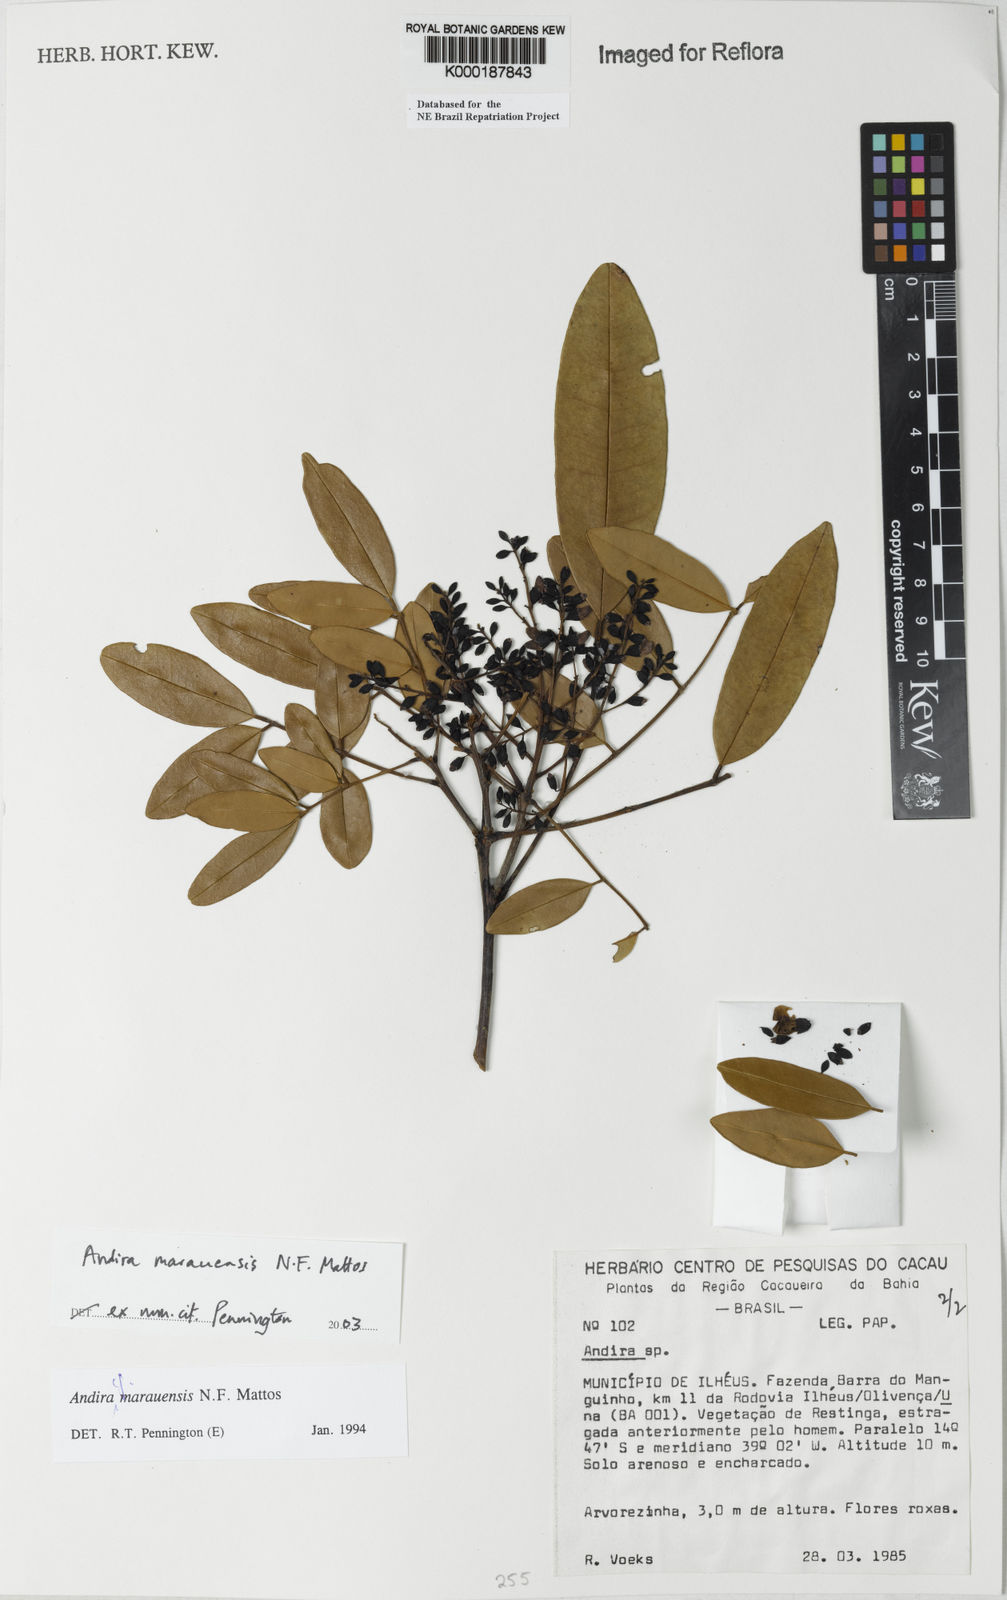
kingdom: Plantae
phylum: Tracheophyta
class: Magnoliopsida
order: Fabales
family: Fabaceae
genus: Andira
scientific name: Andira marauensis
